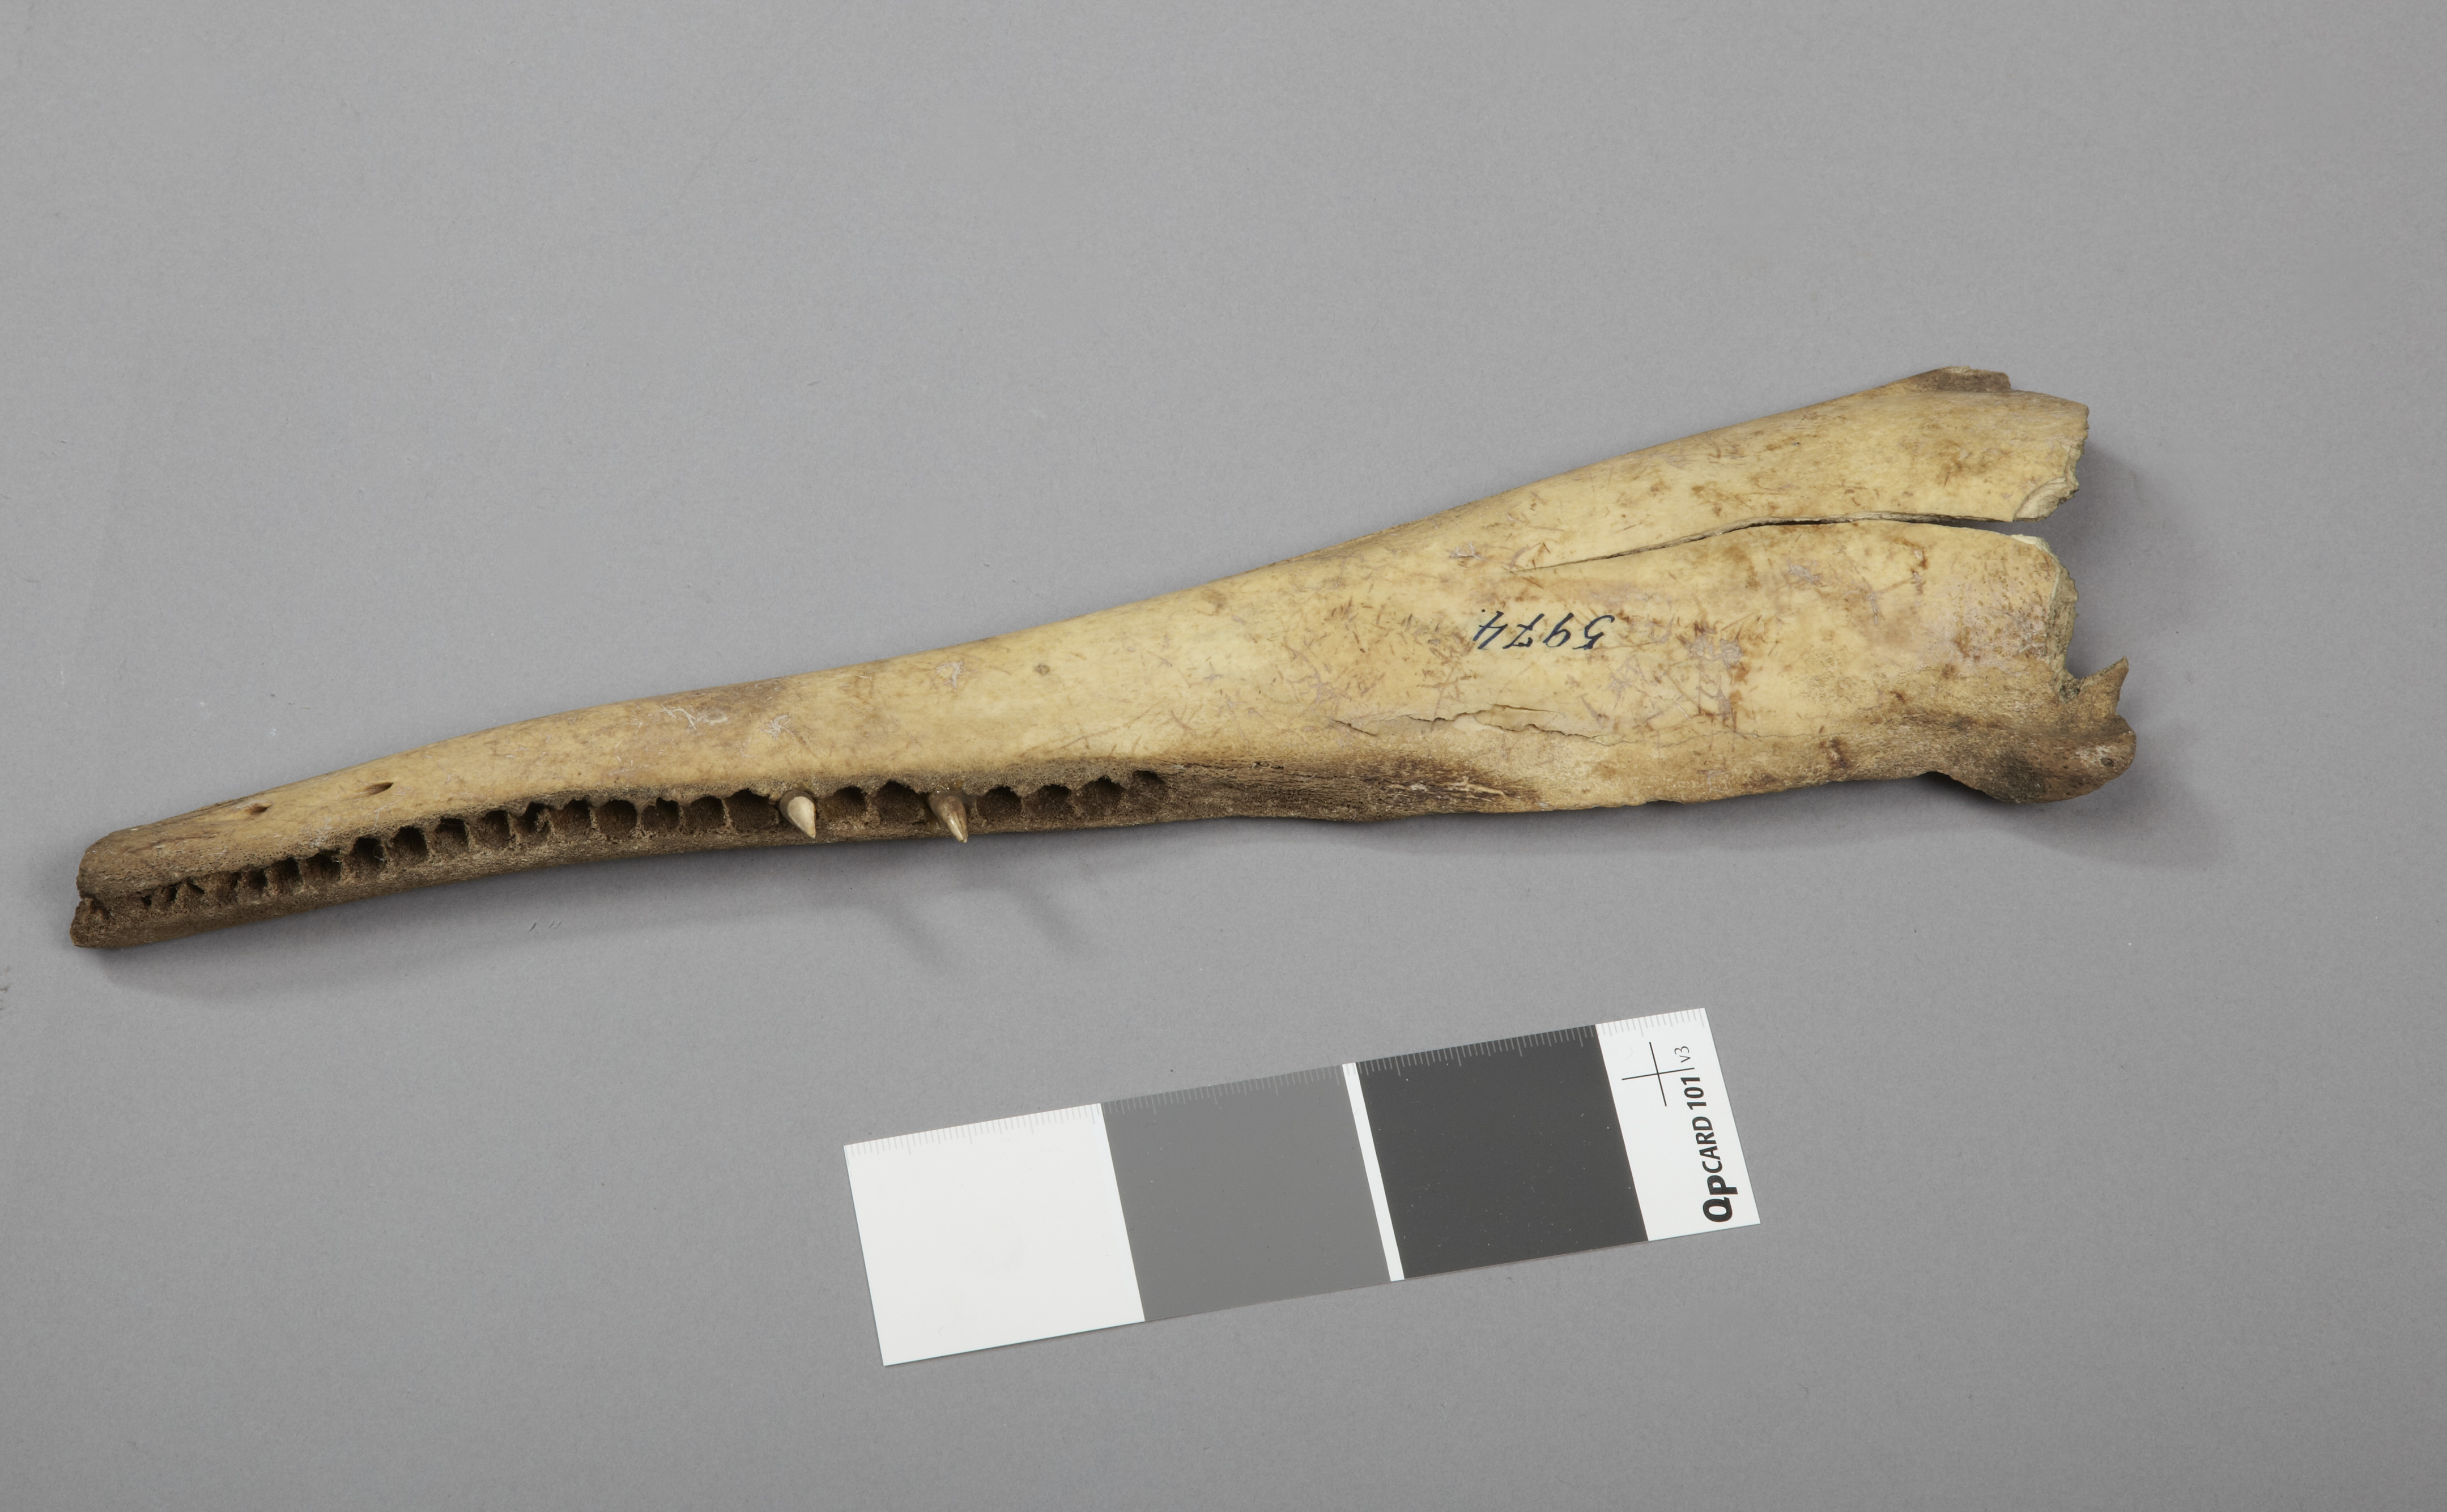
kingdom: Animalia
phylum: Chordata
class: Mammalia
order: Cetacea
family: Delphinidae
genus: Lagenorhynchus
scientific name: Lagenorhynchus albirostris
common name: White-beaked dolphin
